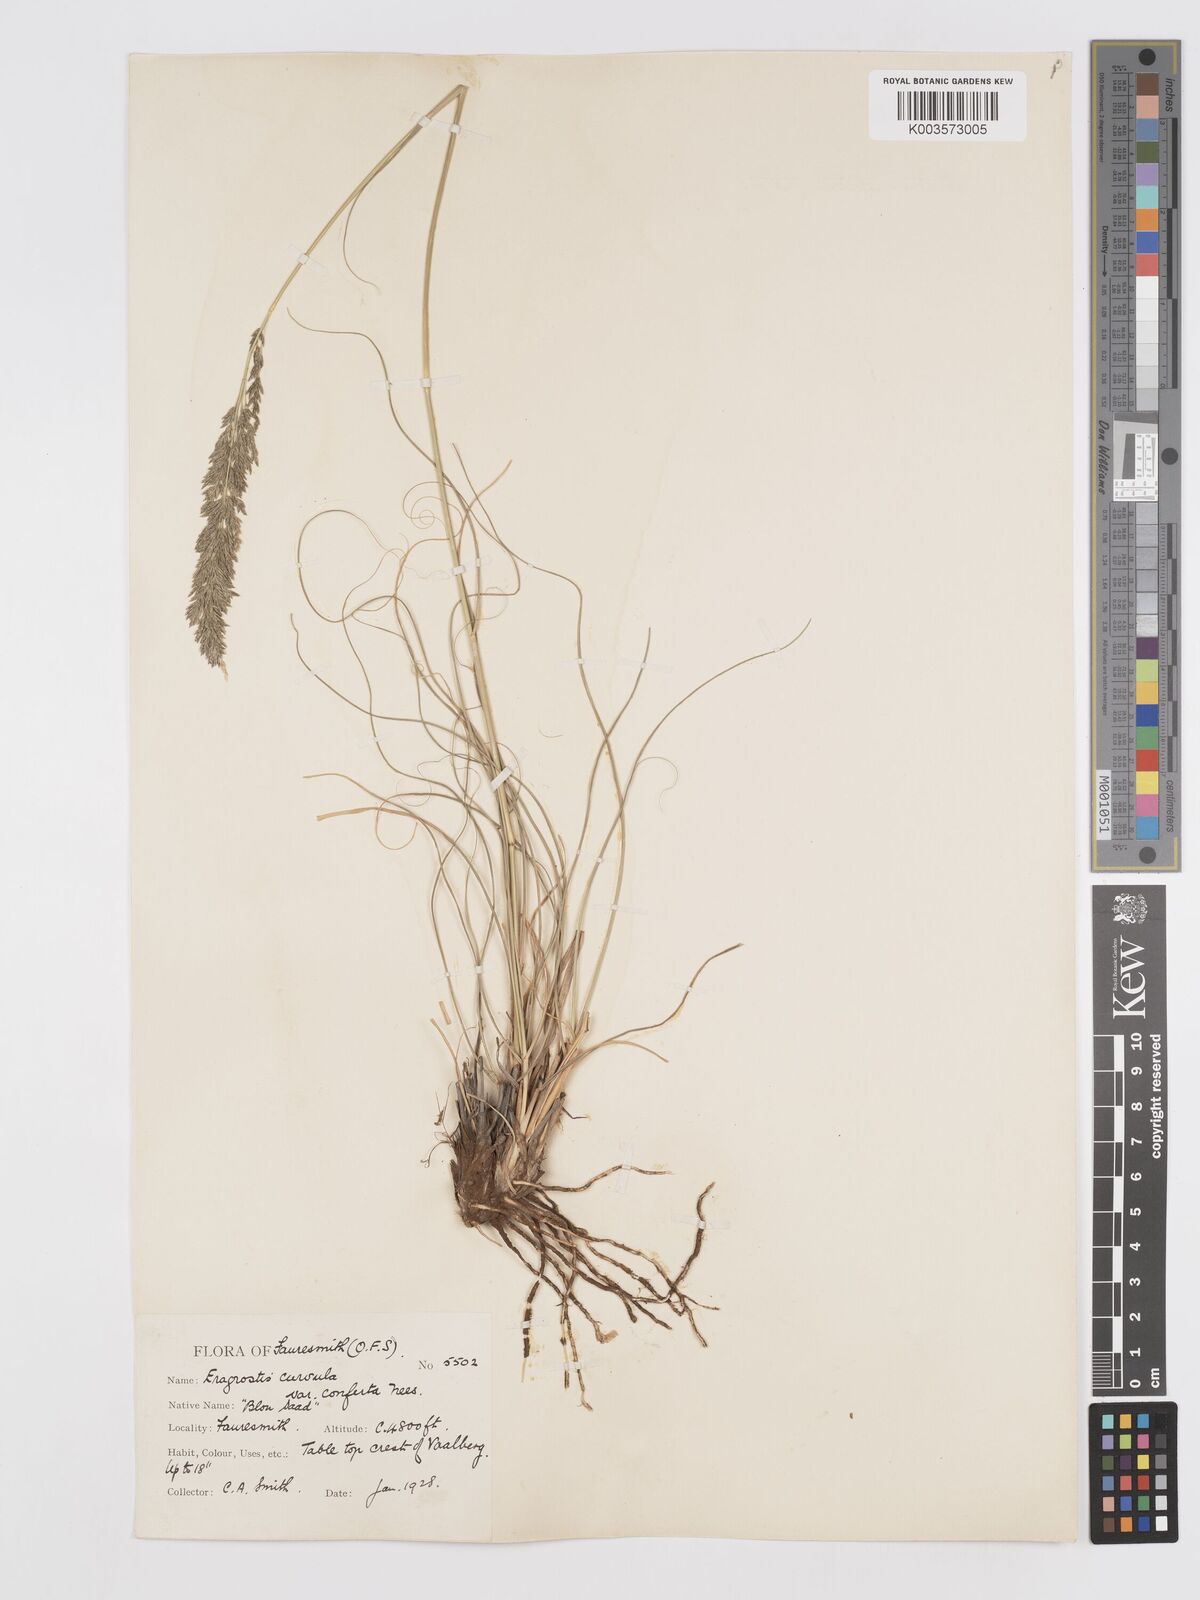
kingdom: Plantae
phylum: Tracheophyta
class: Liliopsida
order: Poales
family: Poaceae
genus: Eragrostis
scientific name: Eragrostis curvula
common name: African love-grass
